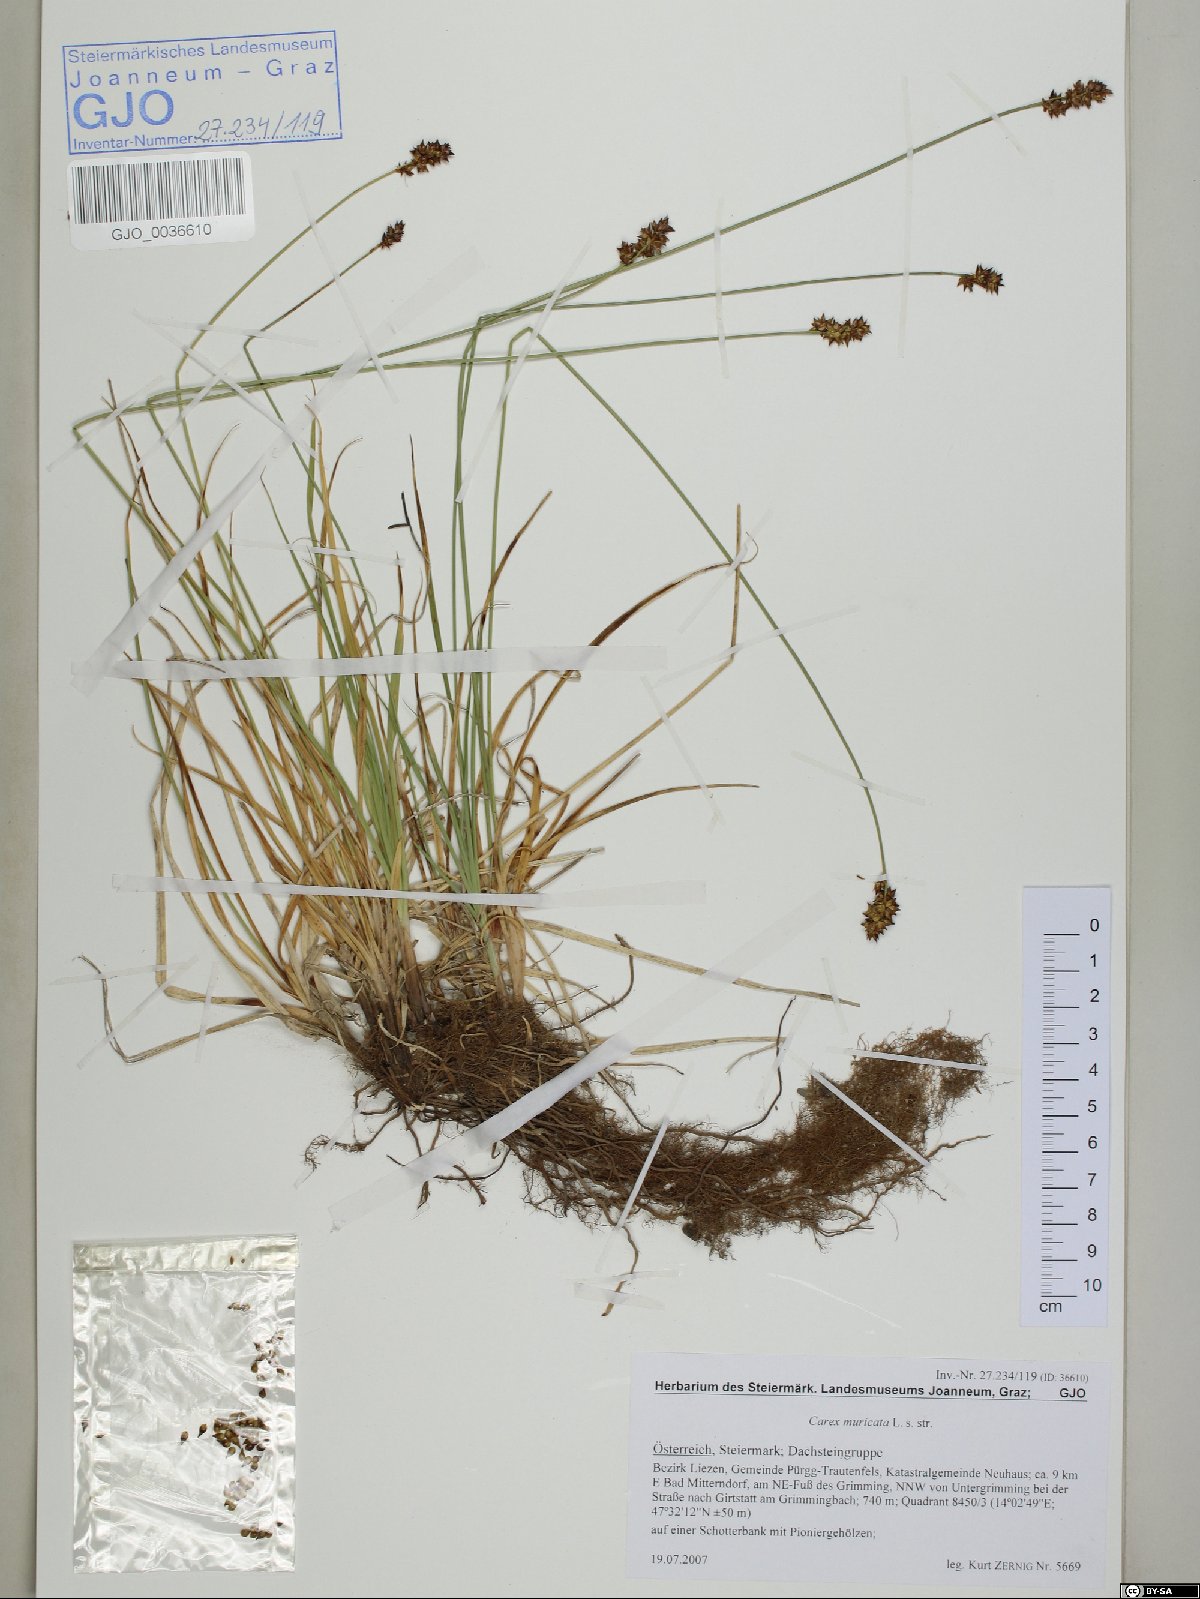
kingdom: Plantae
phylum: Tracheophyta
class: Liliopsida
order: Poales
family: Cyperaceae
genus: Carex
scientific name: Carex muricata
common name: Rough sedge
